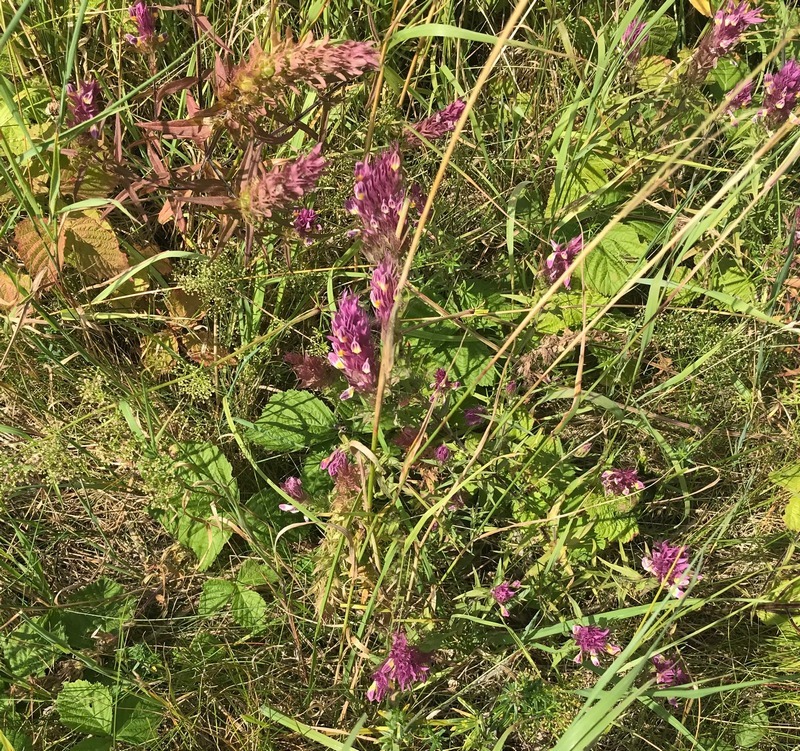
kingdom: Plantae
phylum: Tracheophyta
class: Magnoliopsida
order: Lamiales
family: Orobanchaceae
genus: Melampyrum
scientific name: Melampyrum arvense
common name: Ager-kohvede
